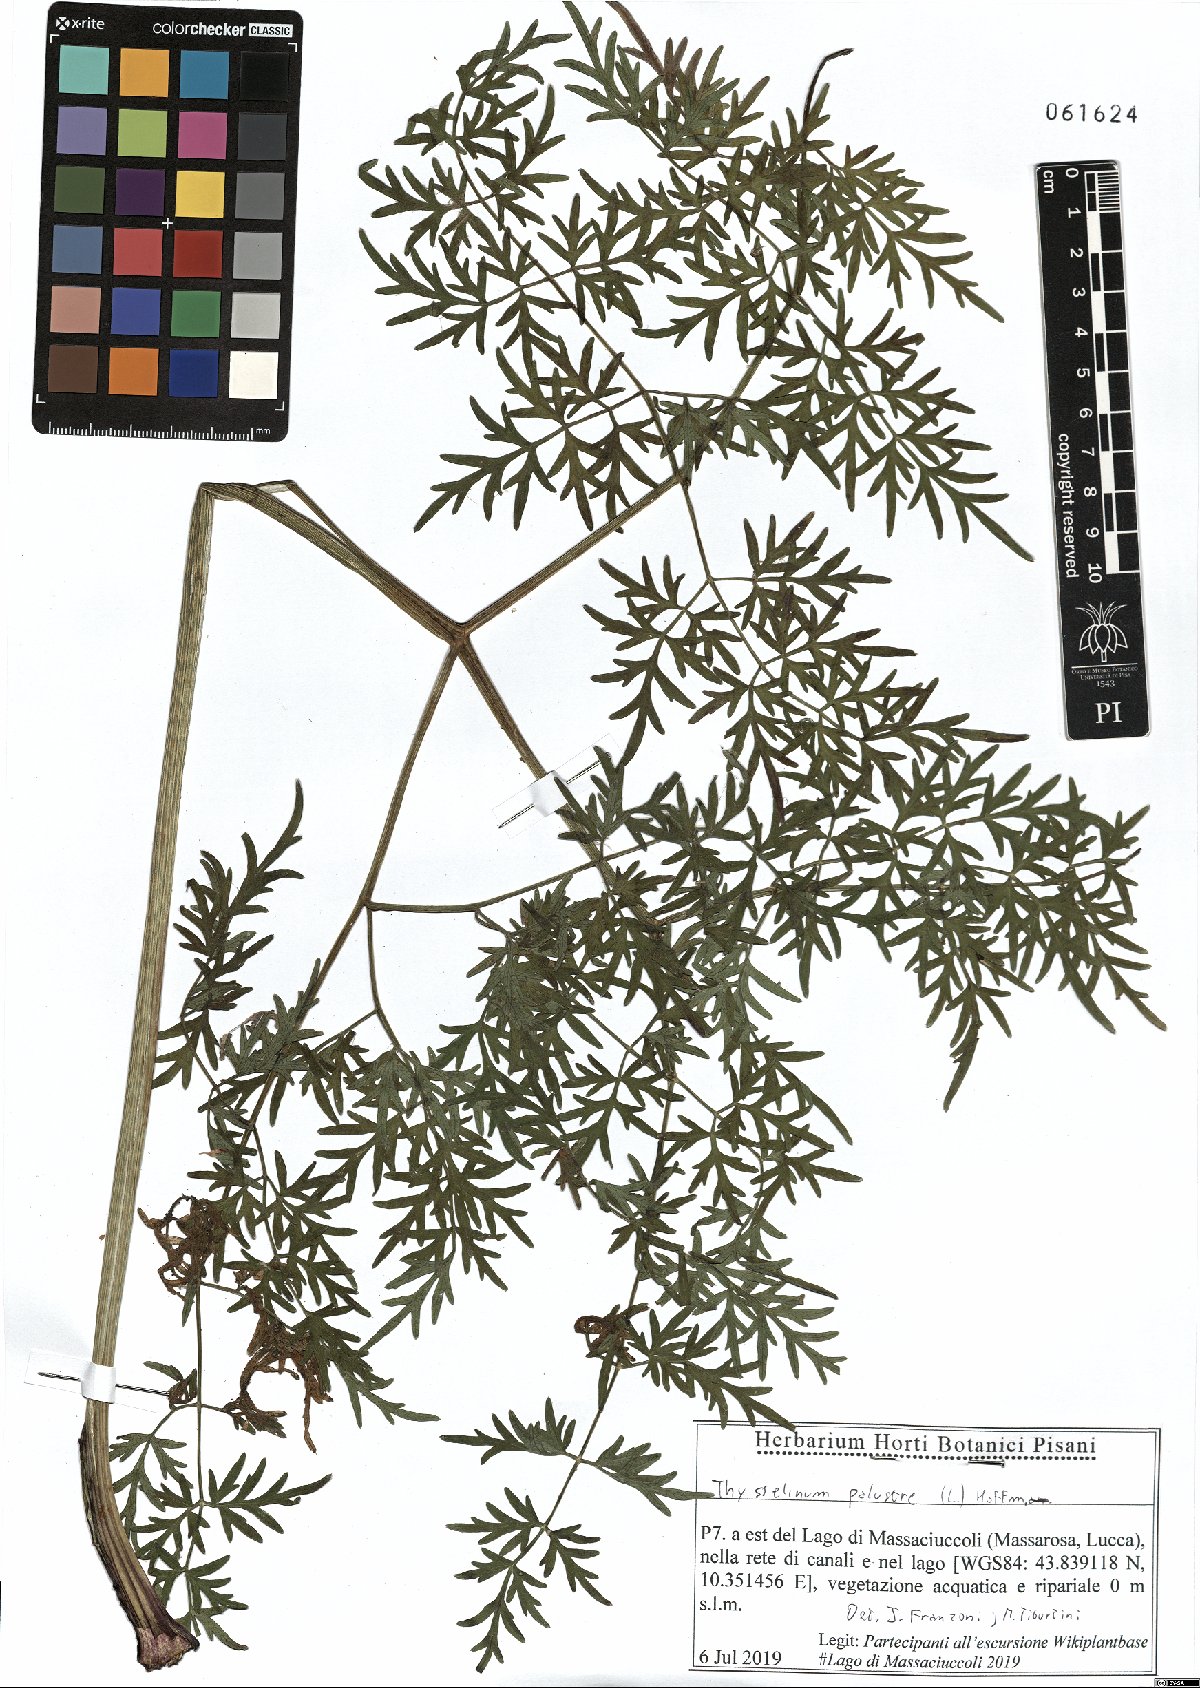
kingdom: Plantae
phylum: Tracheophyta
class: Magnoliopsida
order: Apiales
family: Apiaceae
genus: Thysselinum
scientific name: Thysselinum palustre
